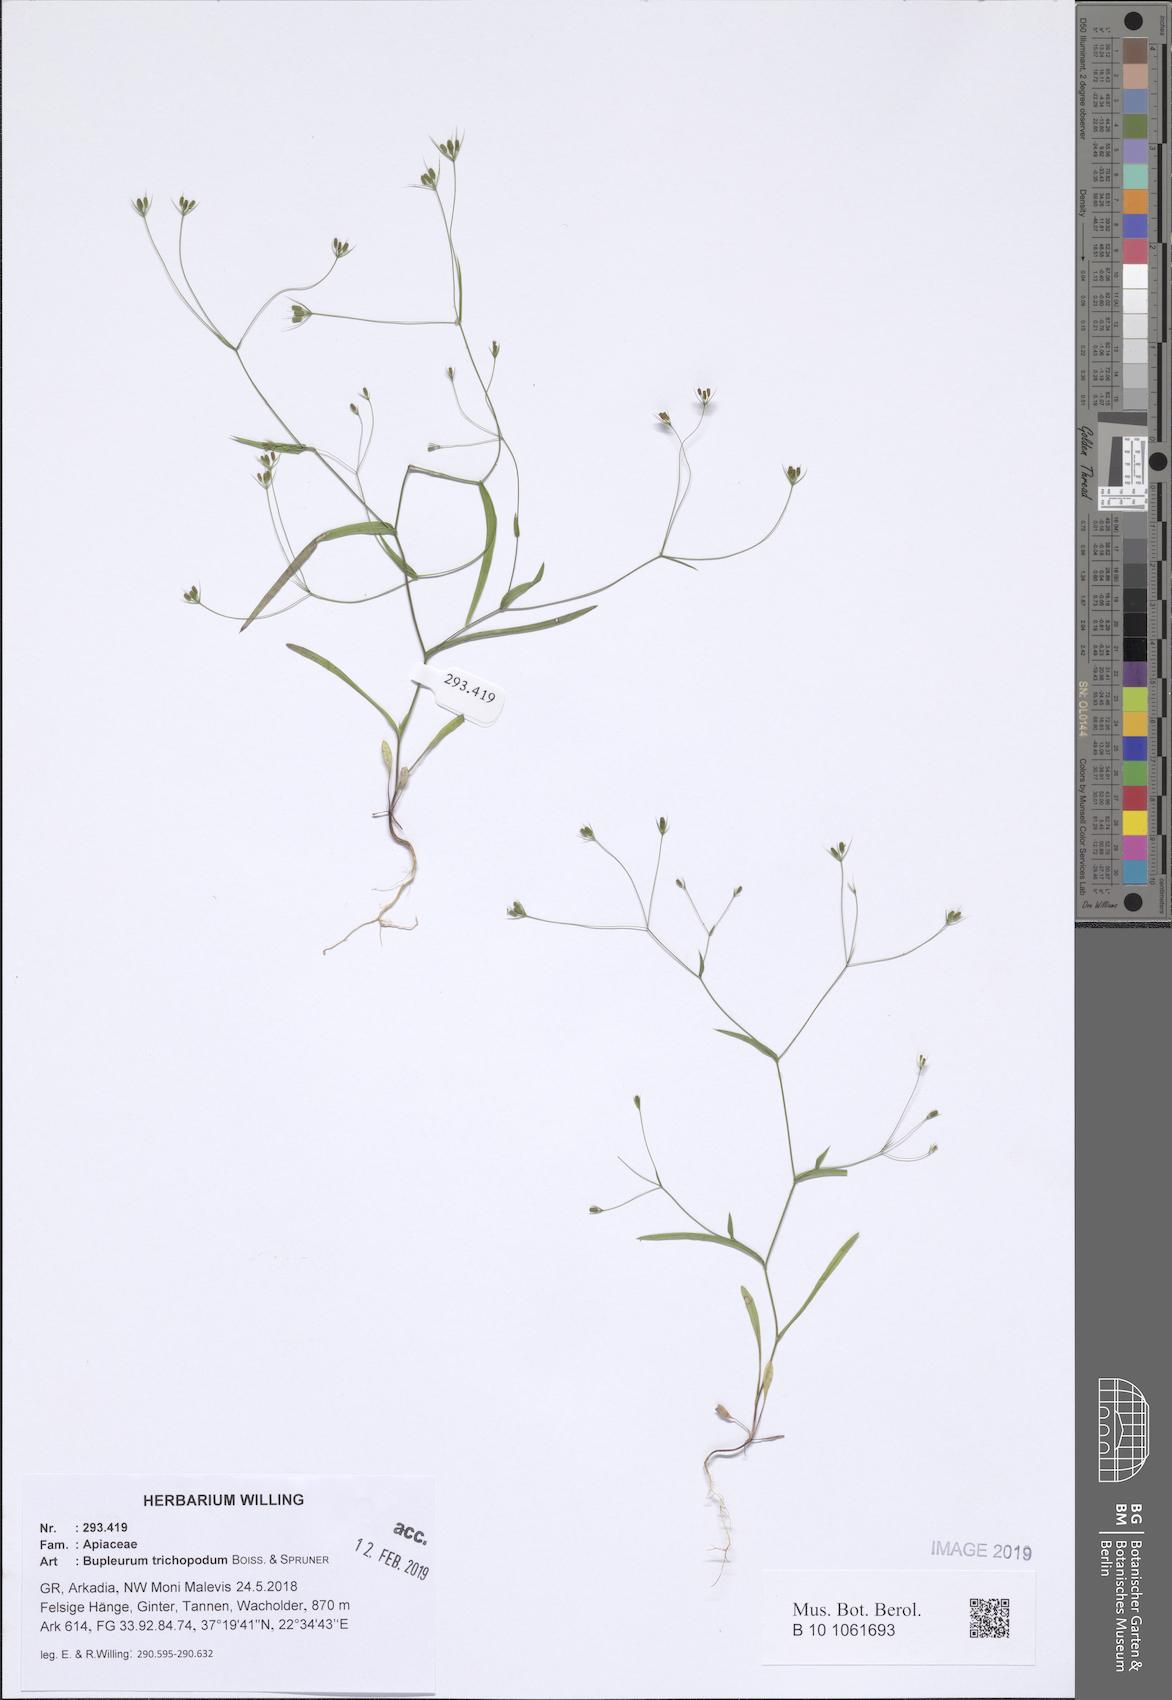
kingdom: Plantae
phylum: Tracheophyta
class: Magnoliopsida
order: Apiales
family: Apiaceae
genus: Bupleurum
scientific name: Bupleurum trichopodum
